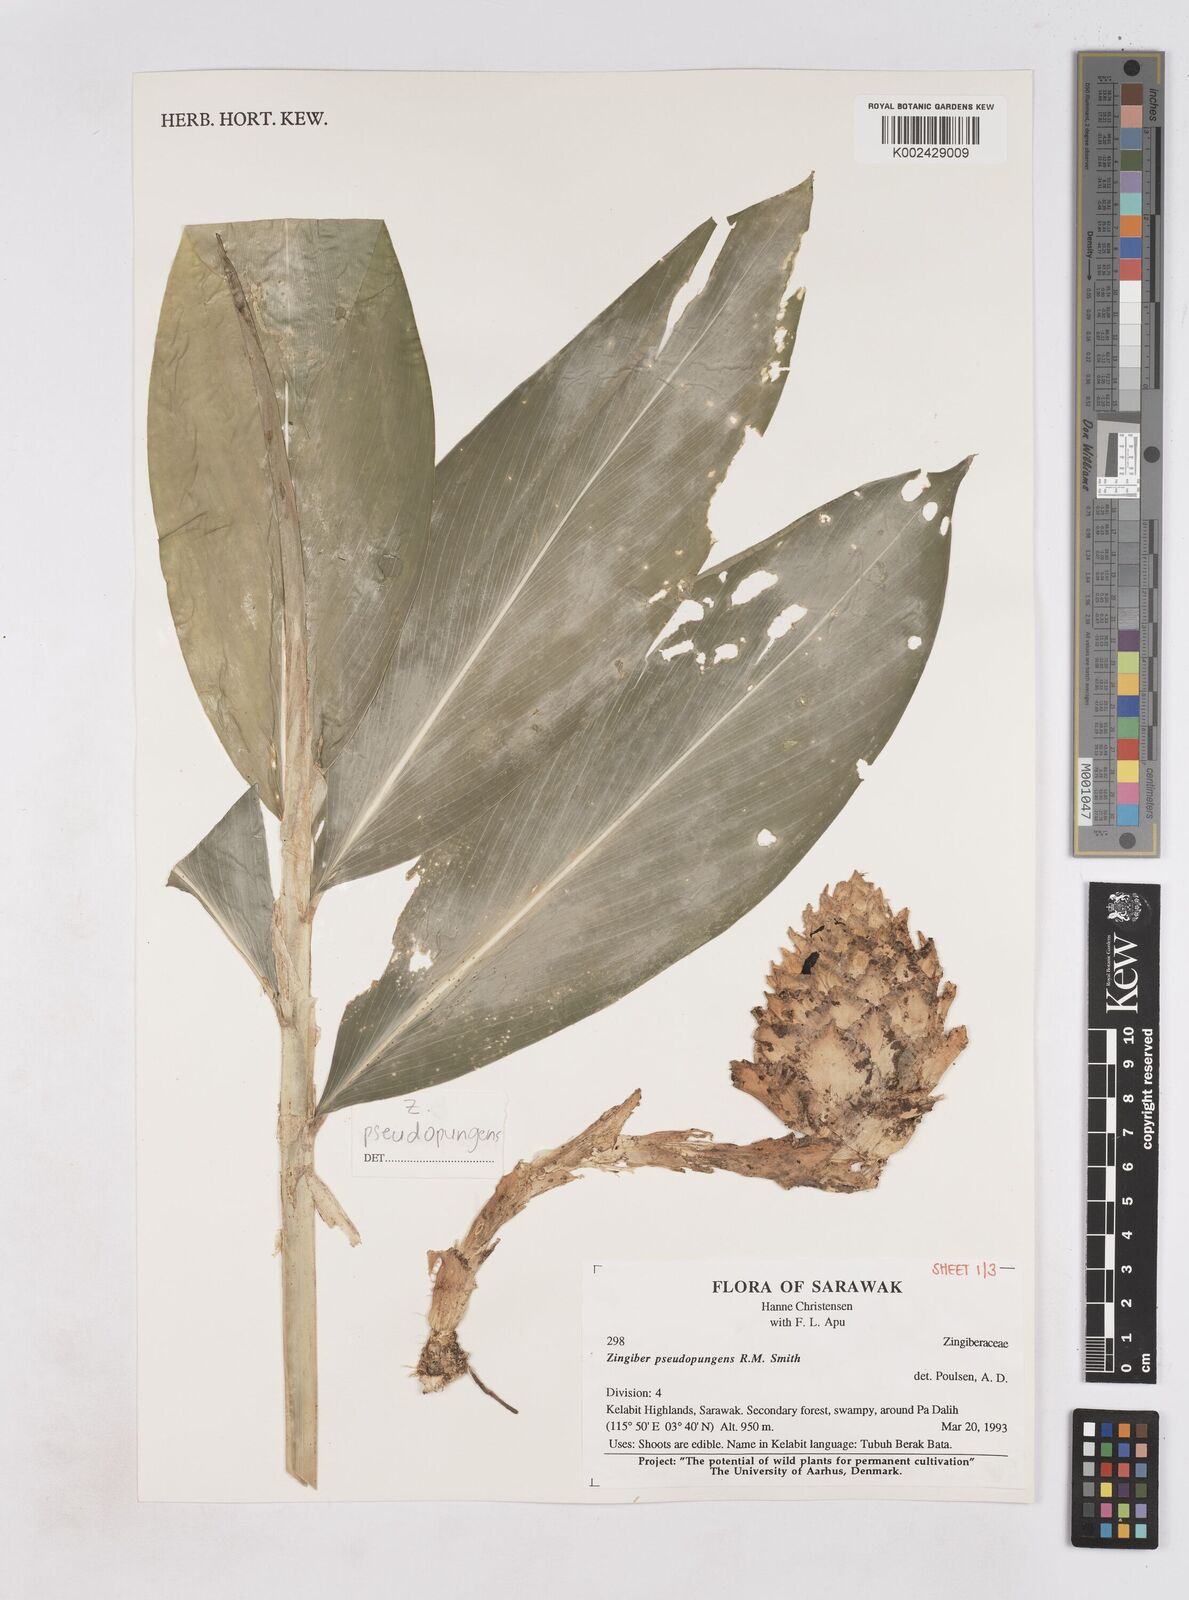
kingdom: Plantae
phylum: Tracheophyta
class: Liliopsida
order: Zingiberales
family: Zingiberaceae
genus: Zingiber
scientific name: Zingiber pseudopungens
